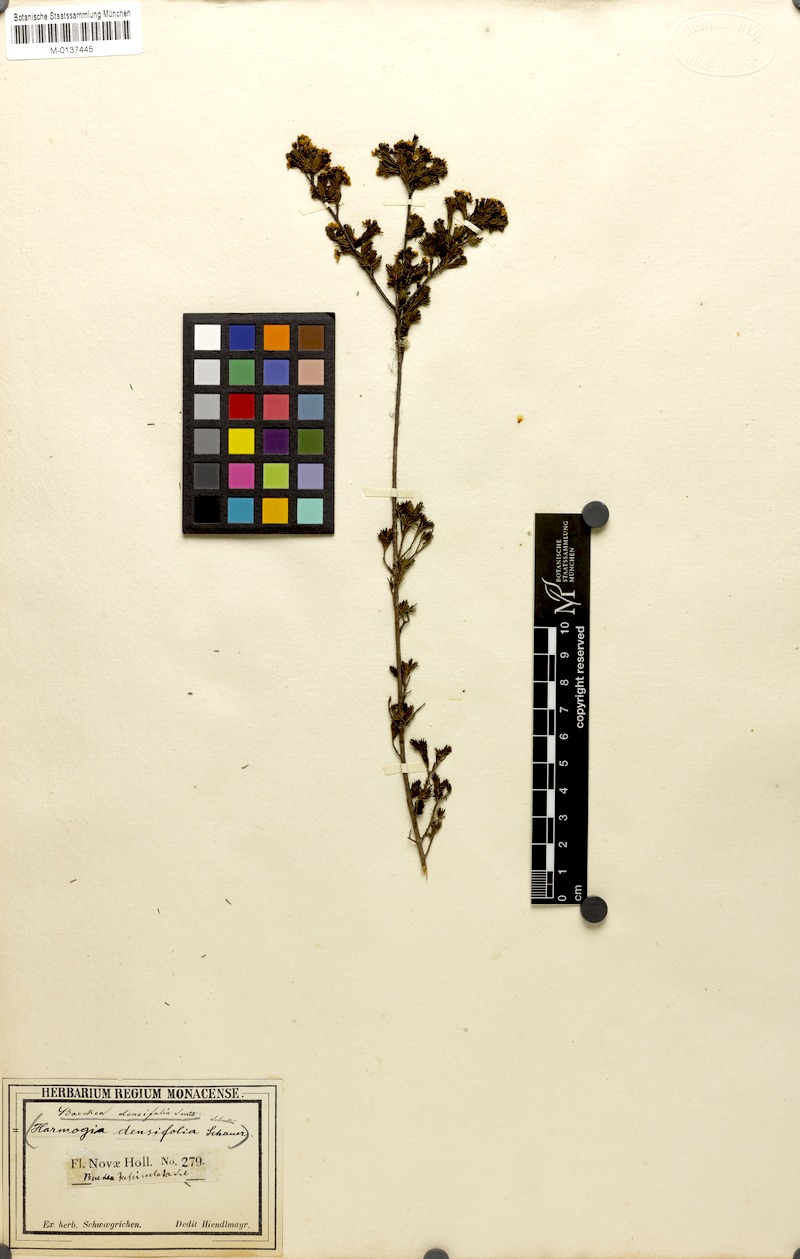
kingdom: Plantae
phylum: Tracheophyta
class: Magnoliopsida
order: Myrtales
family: Myrtaceae
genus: Harmogia
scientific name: Harmogia densifolia
